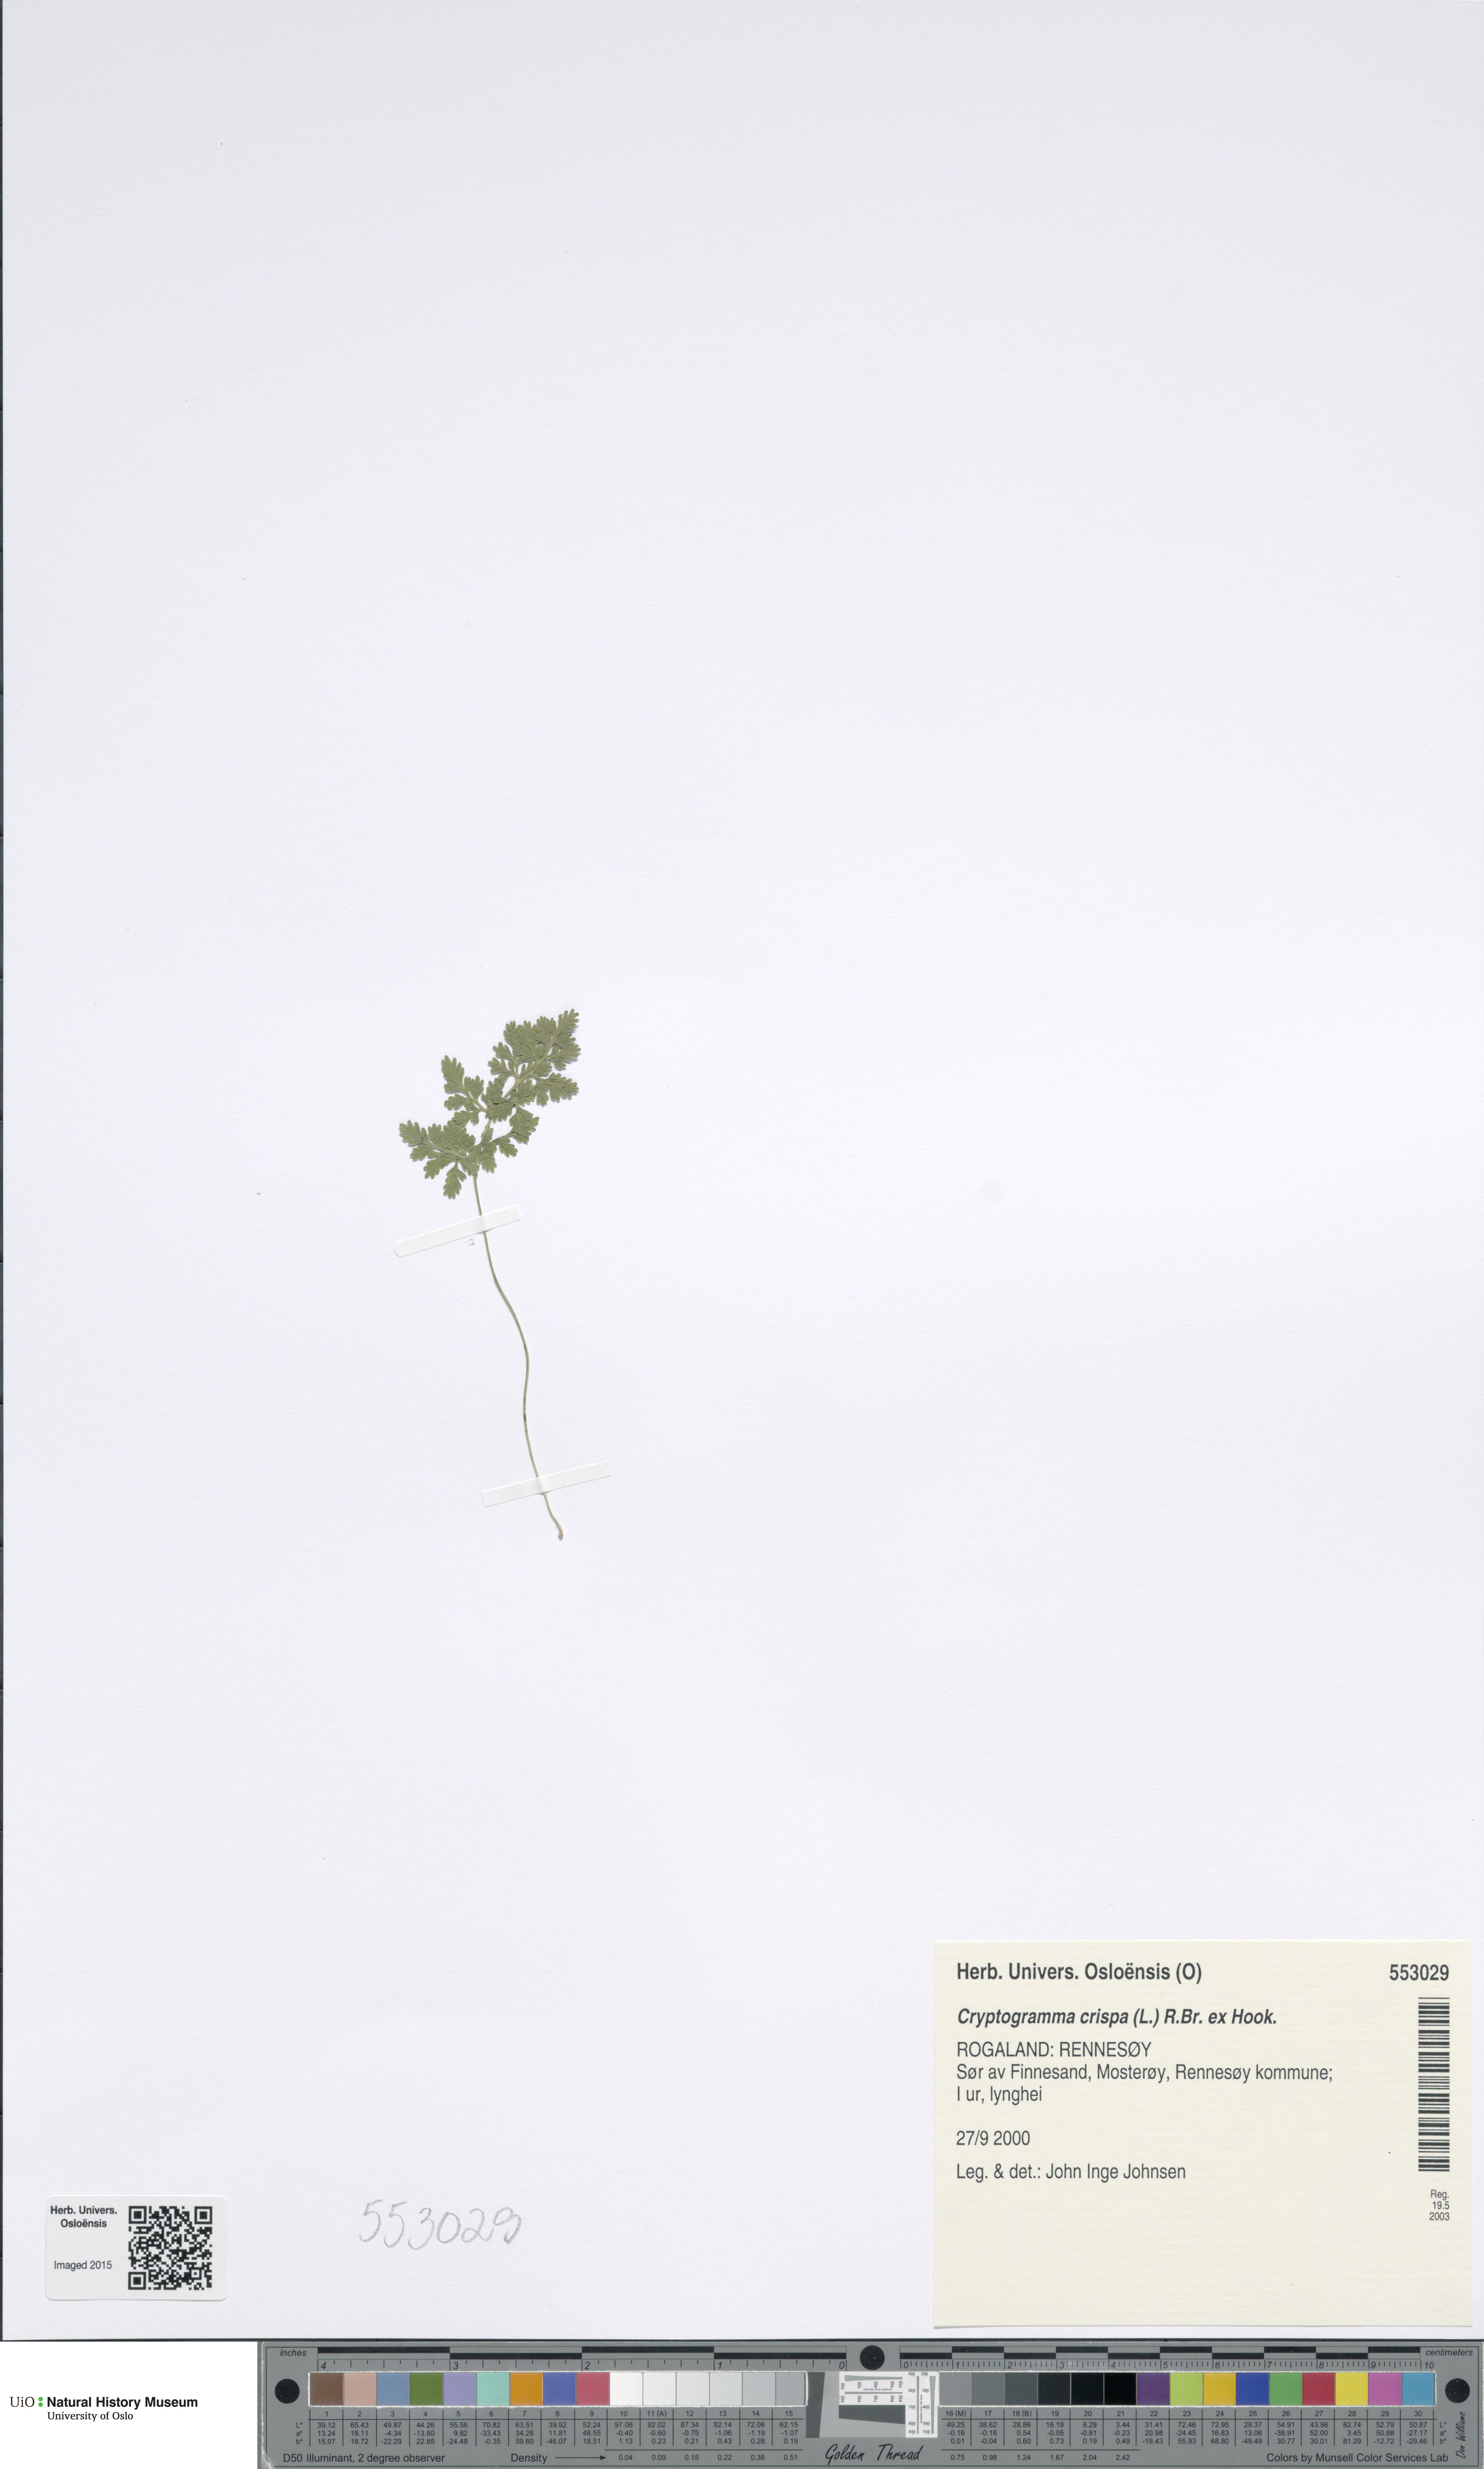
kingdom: Plantae
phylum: Tracheophyta
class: Polypodiopsida
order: Polypodiales
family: Pteridaceae
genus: Cryptogramma
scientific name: Cryptogramma crispa
